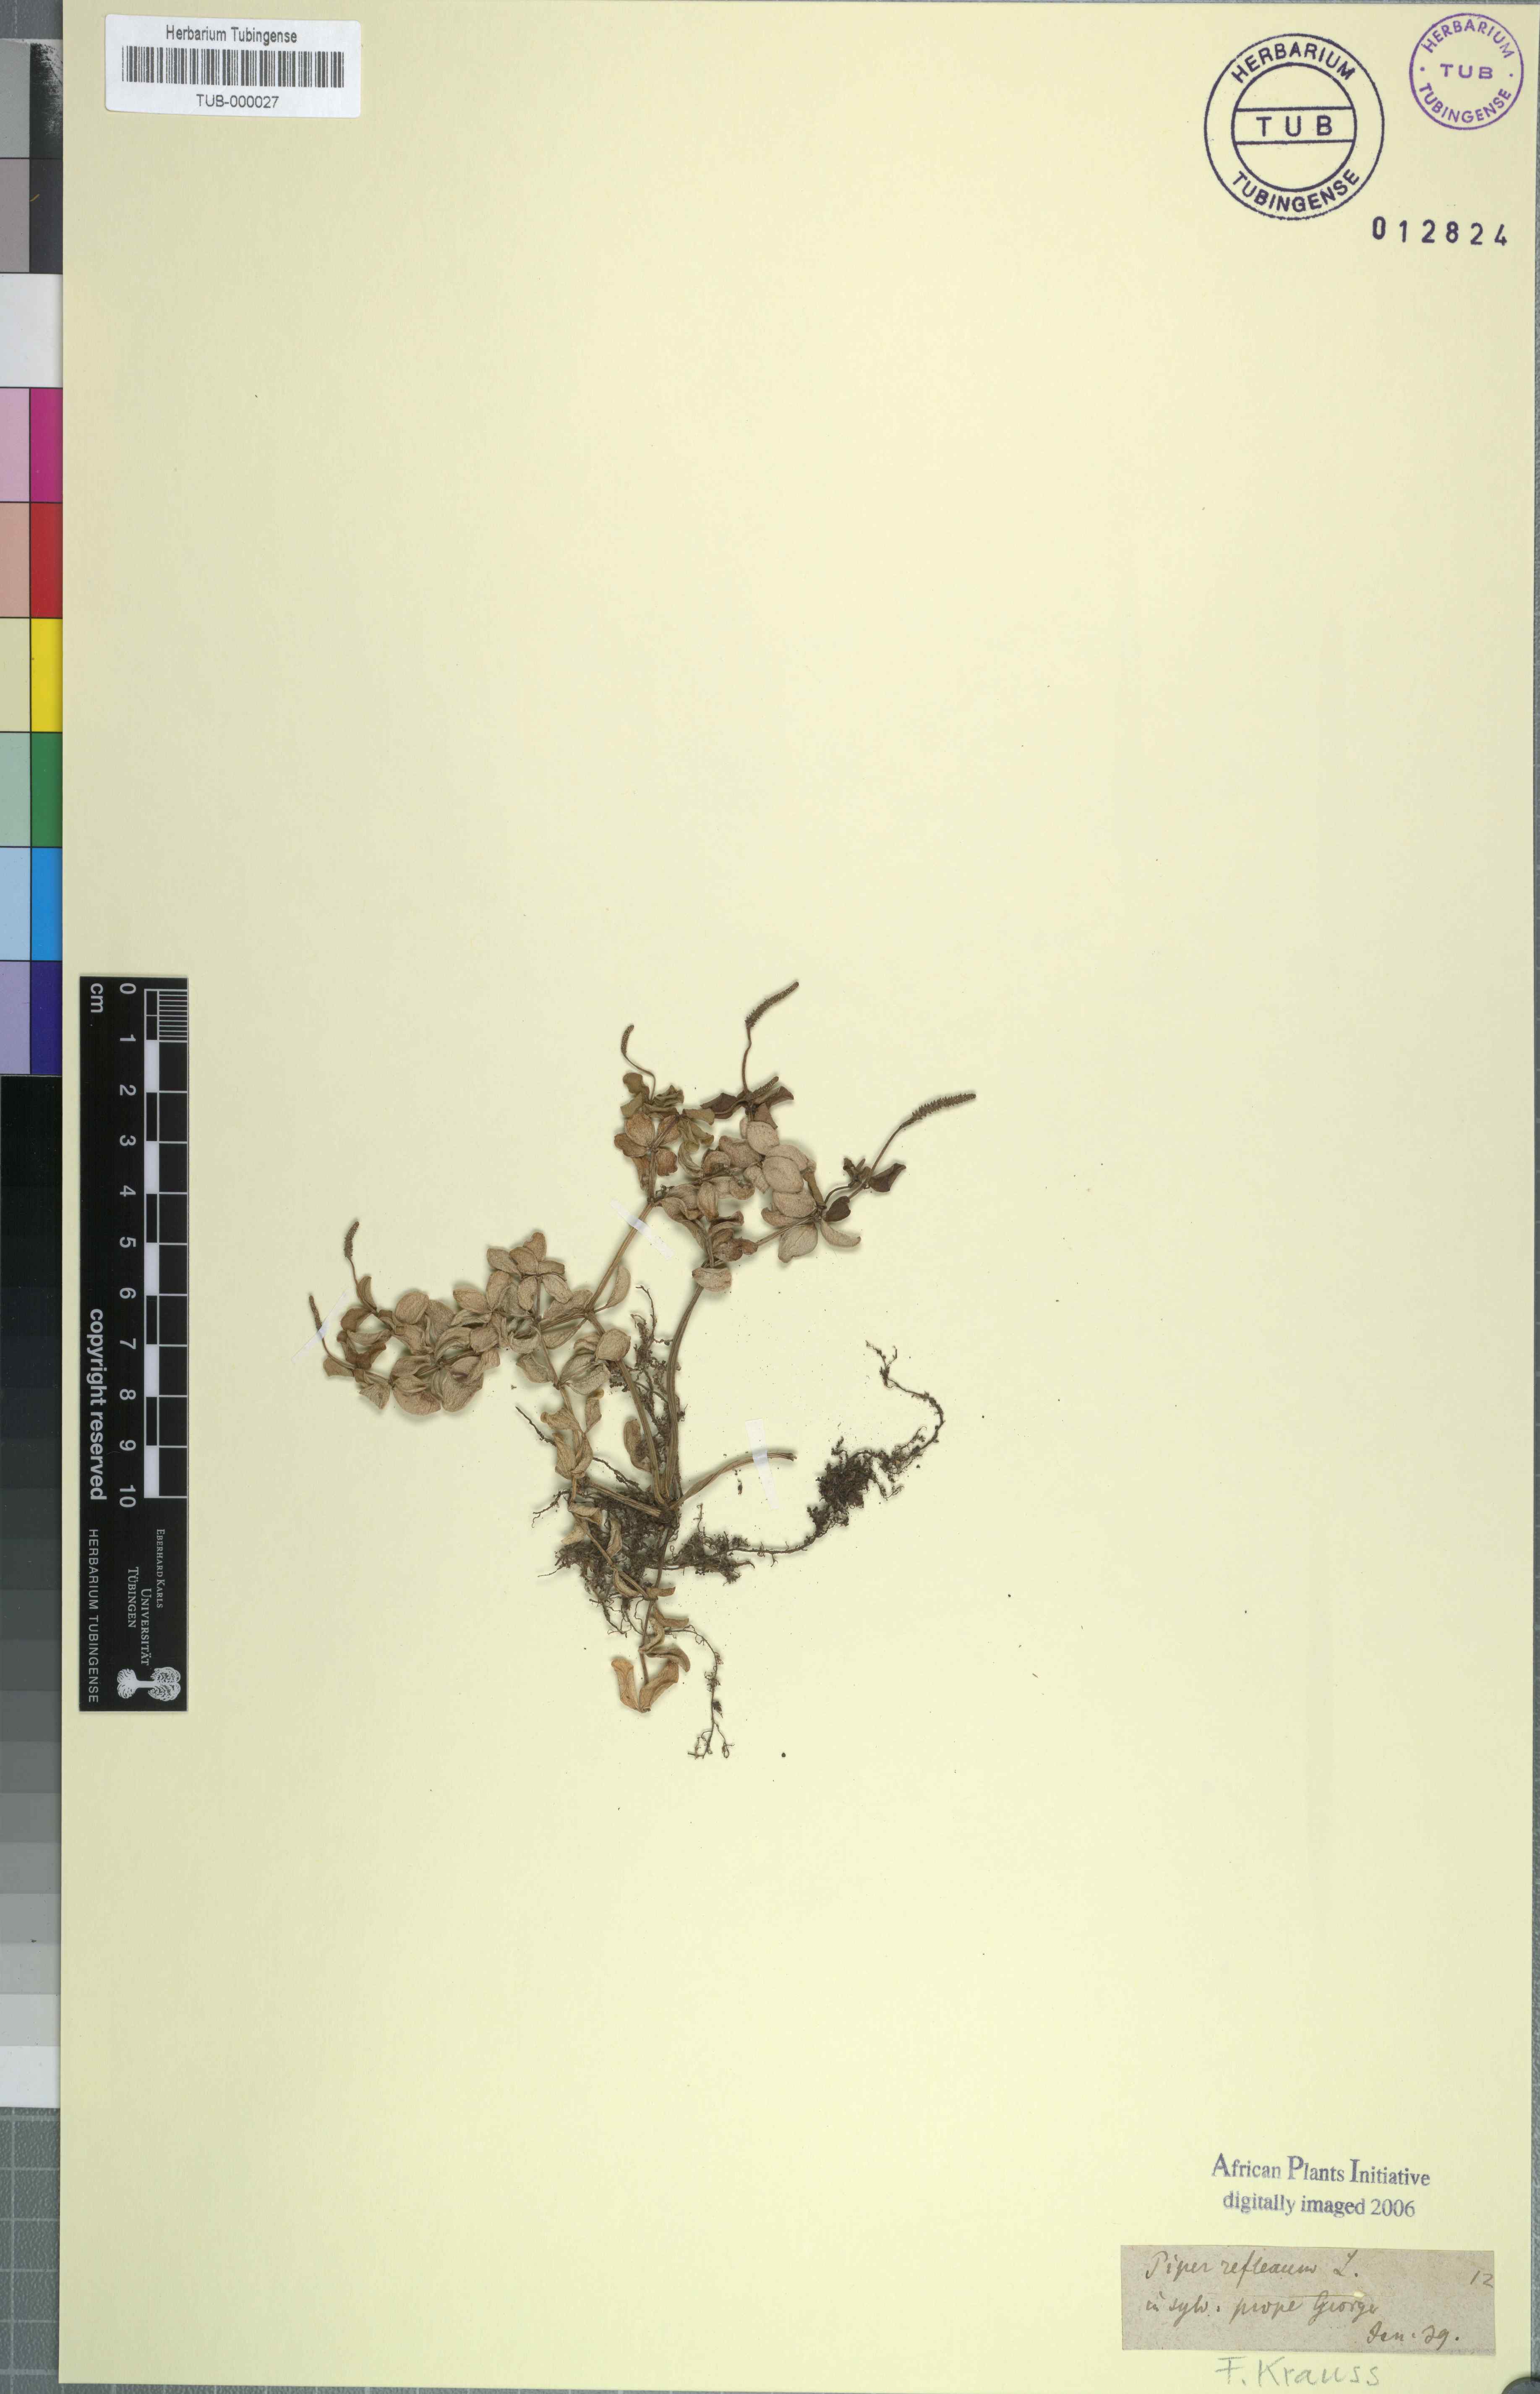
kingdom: Plantae
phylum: Tracheophyta
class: Magnoliopsida
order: Piperales
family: Piperaceae
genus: Peperomia
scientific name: Peperomia tetraphylla
